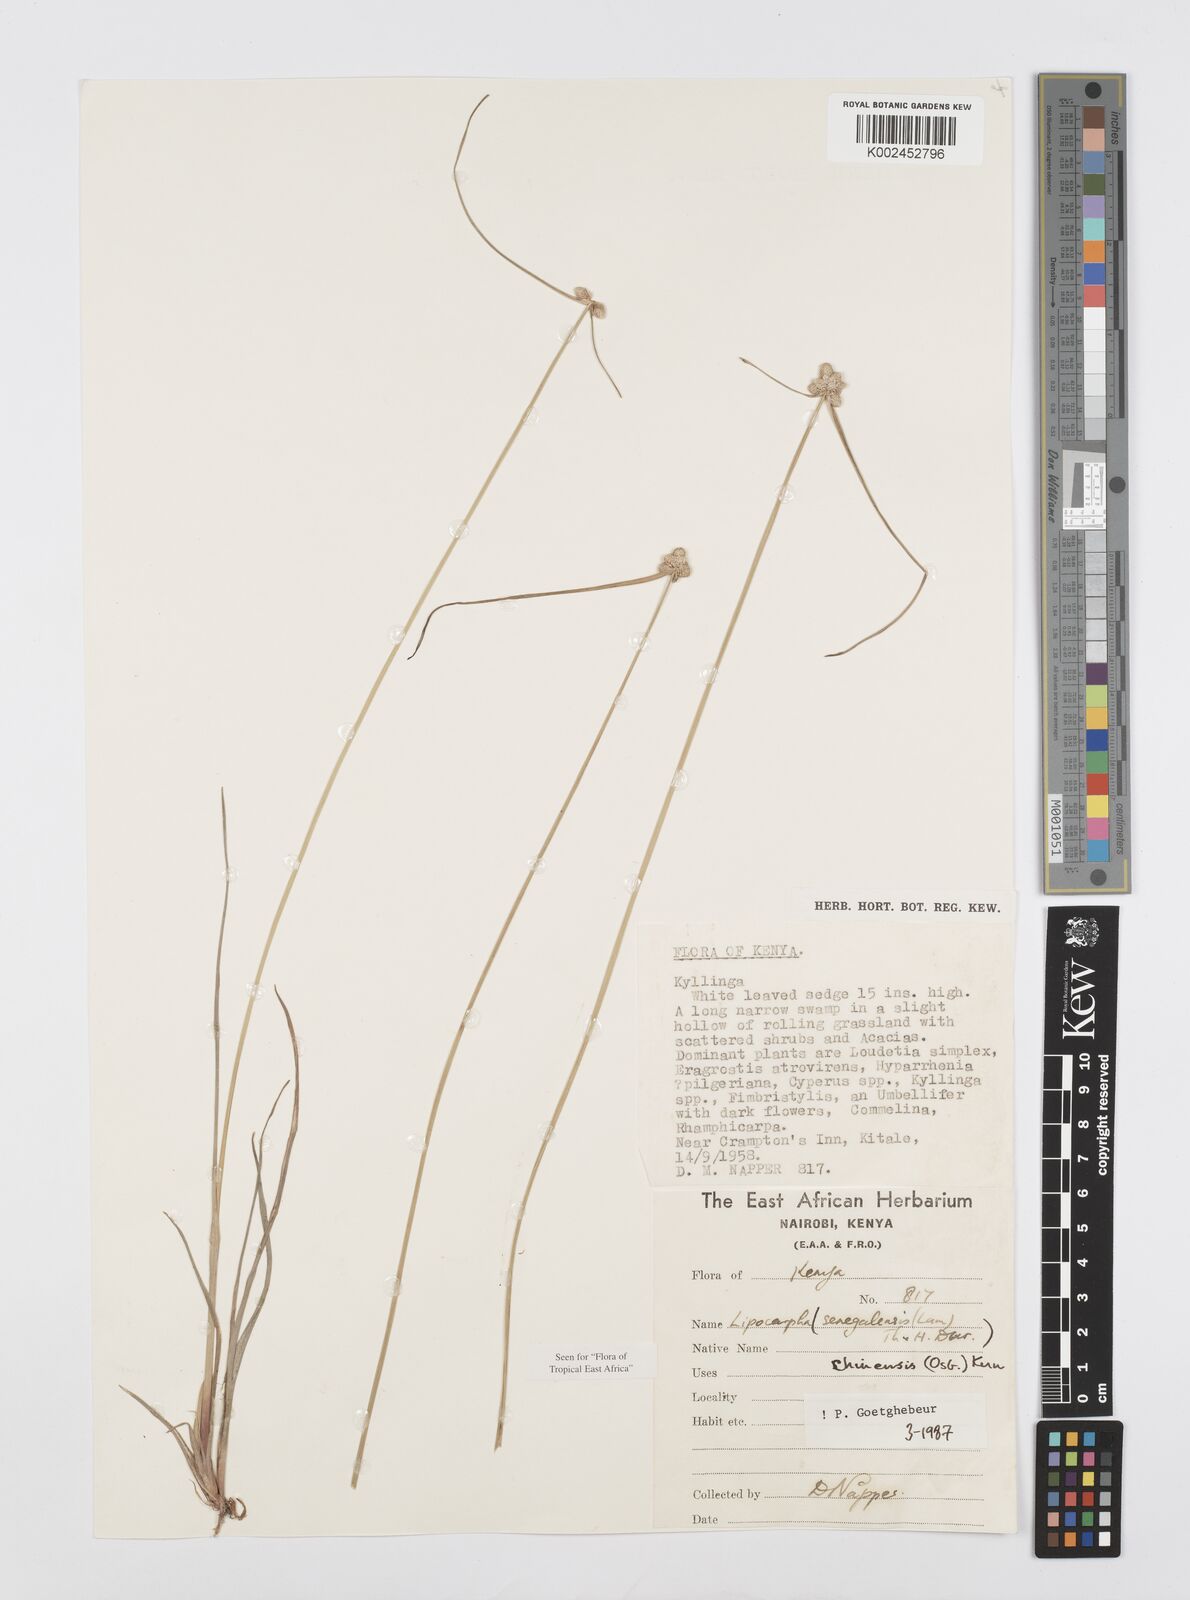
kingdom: Plantae
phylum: Tracheophyta
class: Liliopsida
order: Poales
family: Cyperaceae
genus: Cyperus
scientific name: Cyperus albescens
